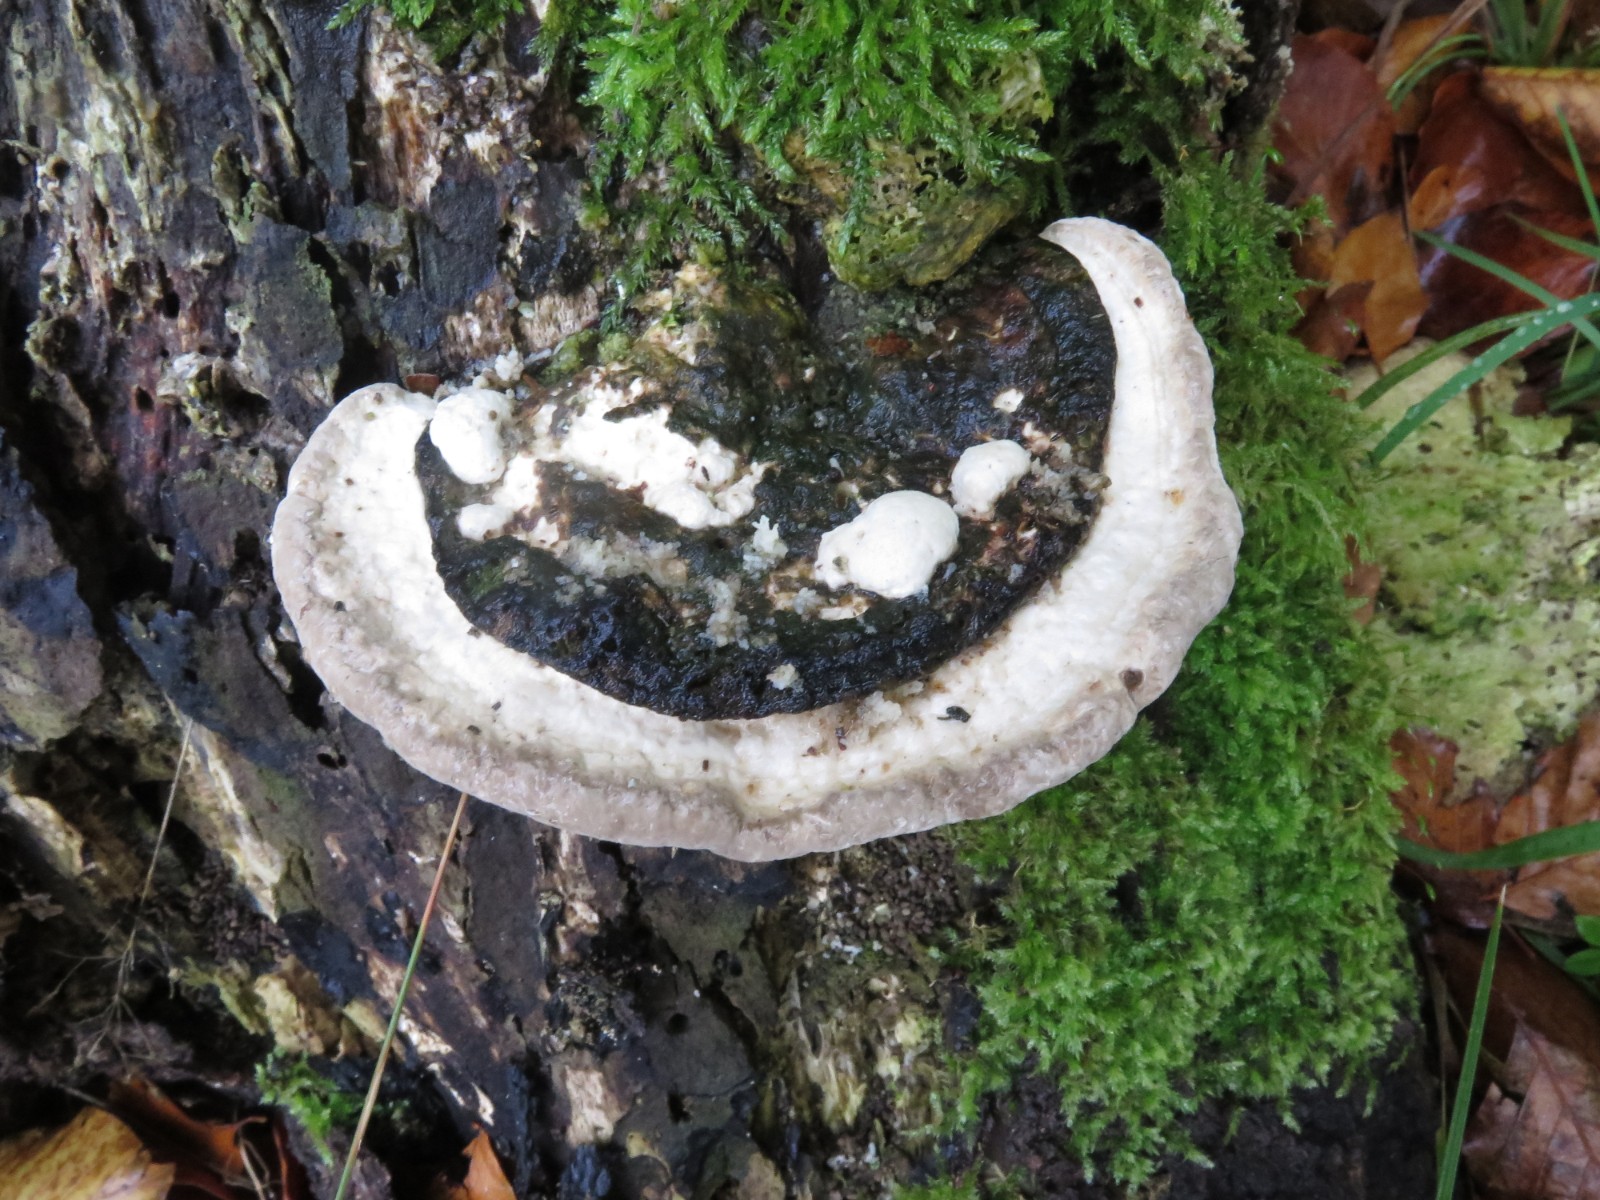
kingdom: Fungi
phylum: Basidiomycota
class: Agaricomycetes
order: Polyporales
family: Polyporaceae
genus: Trametes
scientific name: Trametes hirsuta
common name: håret læderporesvamp
